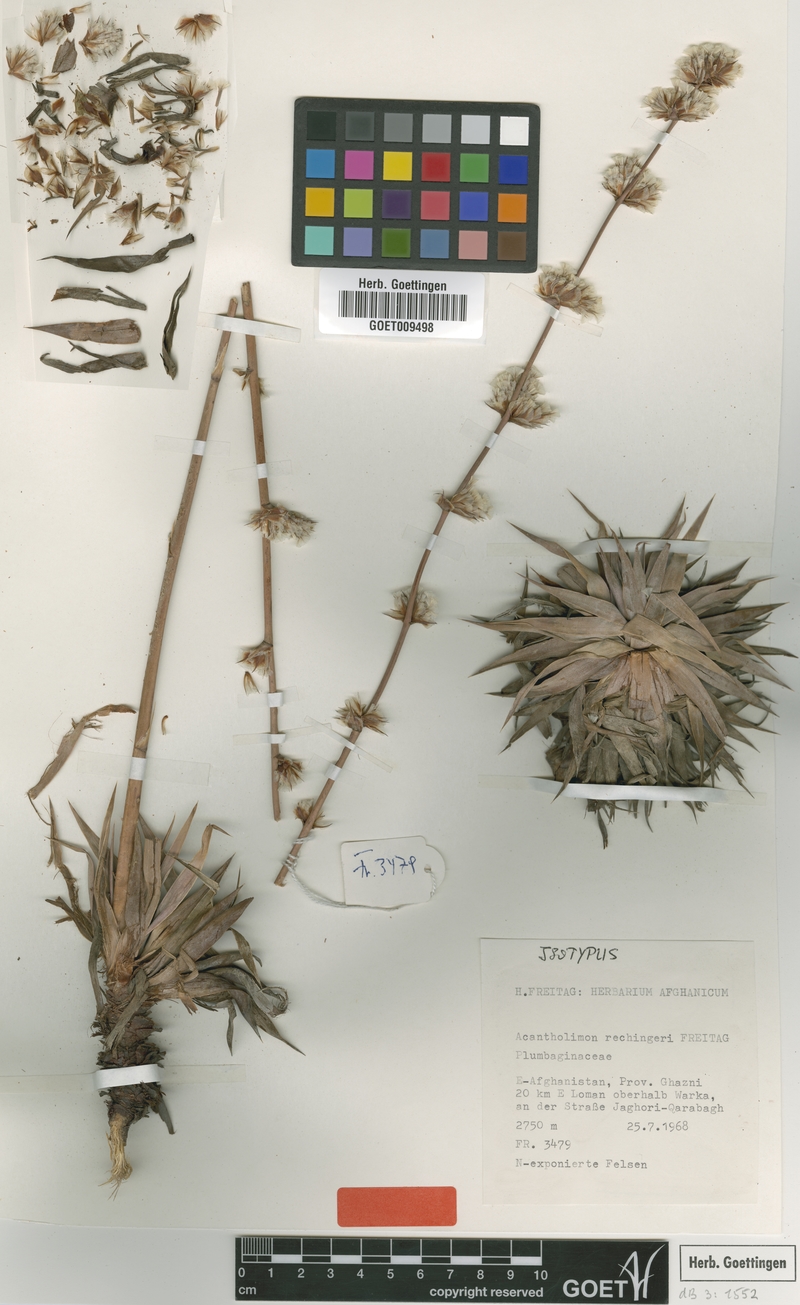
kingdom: Plantae
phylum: Tracheophyta
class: Magnoliopsida
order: Caryophyllales
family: Plumbaginaceae
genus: Acantholimon
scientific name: Acantholimon rechingeri
